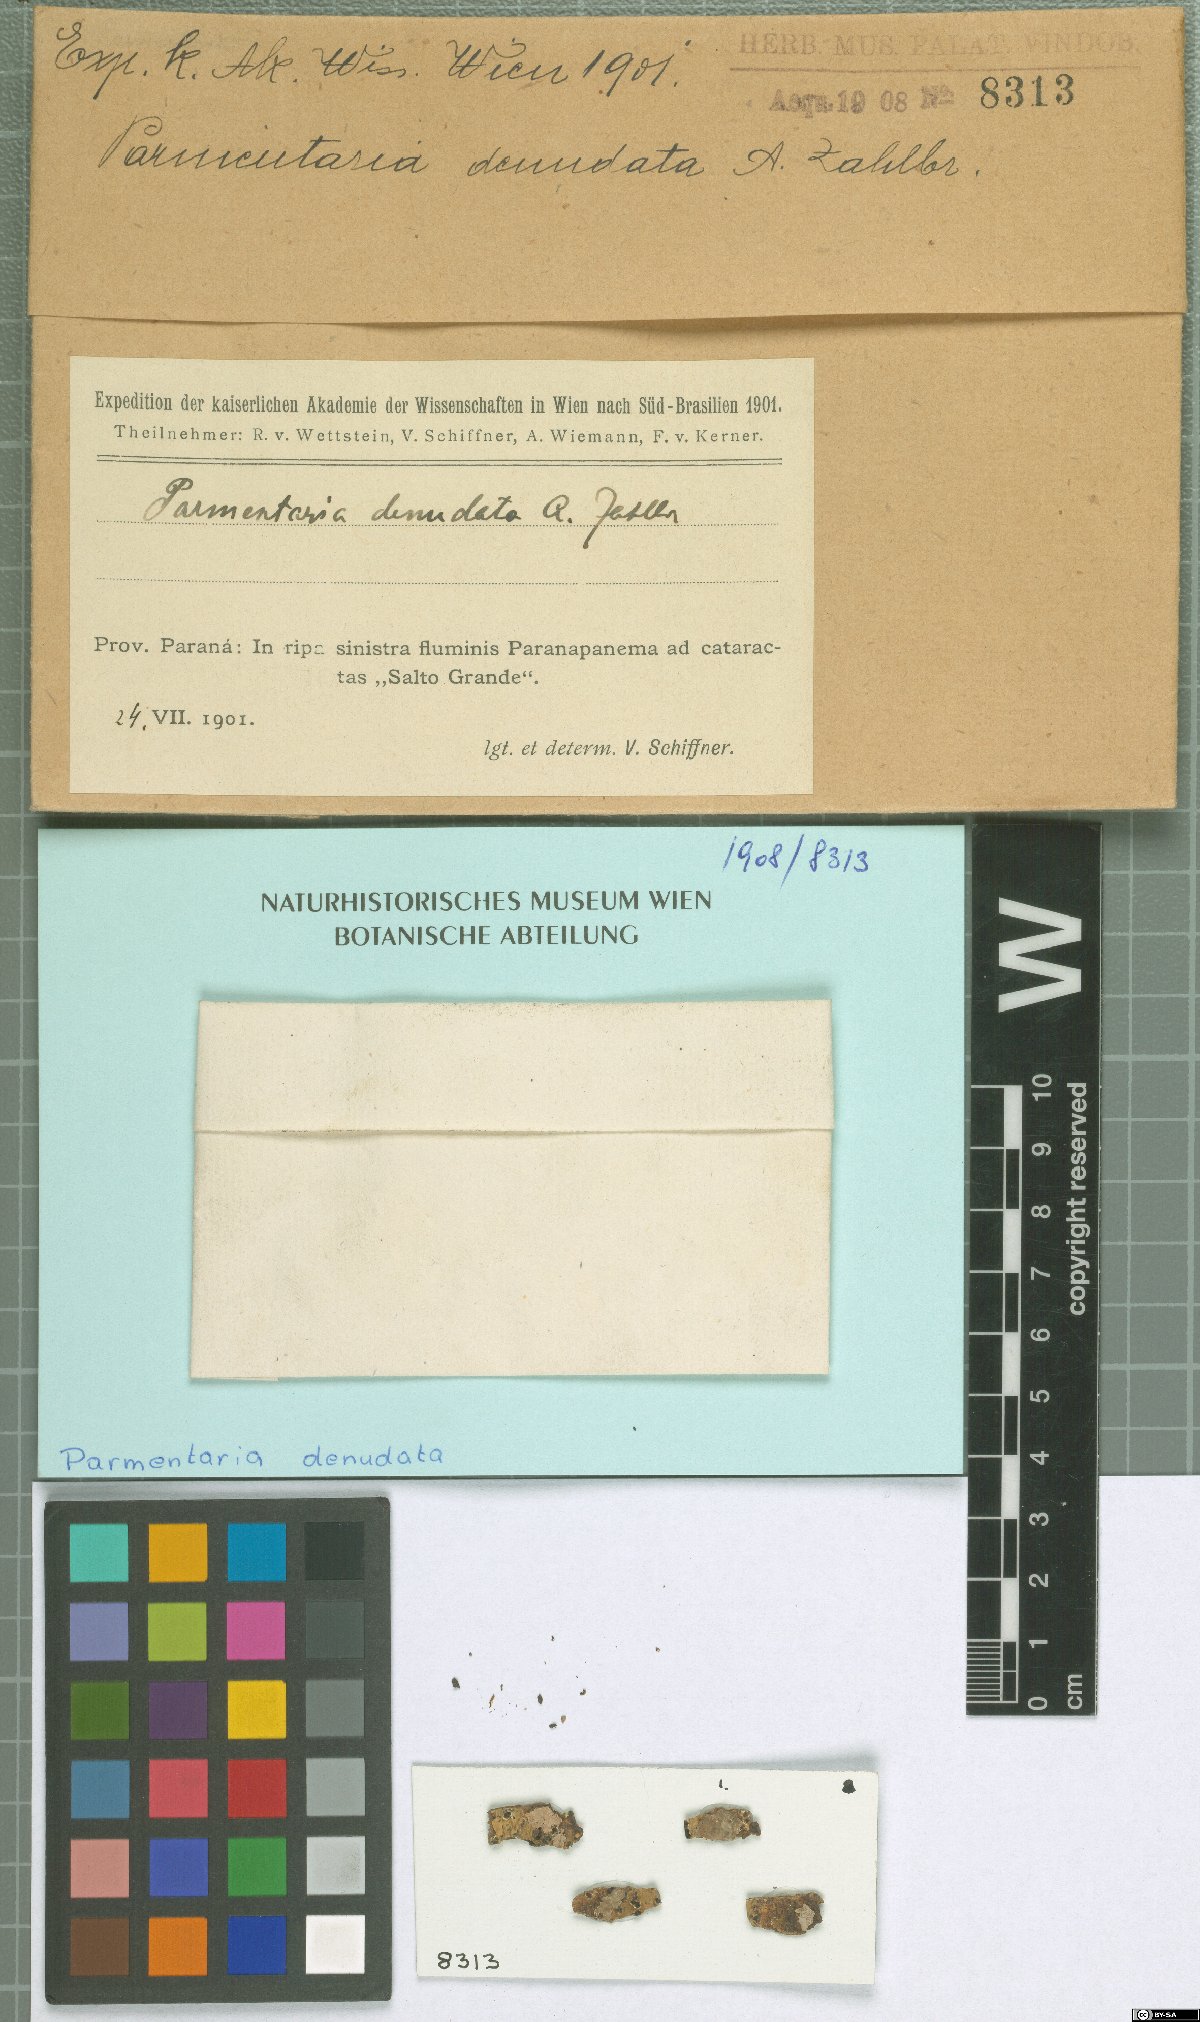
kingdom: Fungi
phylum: Ascomycota
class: Eurotiomycetes
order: Verrucariales
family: Verrucariaceae
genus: Parmentaria
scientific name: Parmentaria
